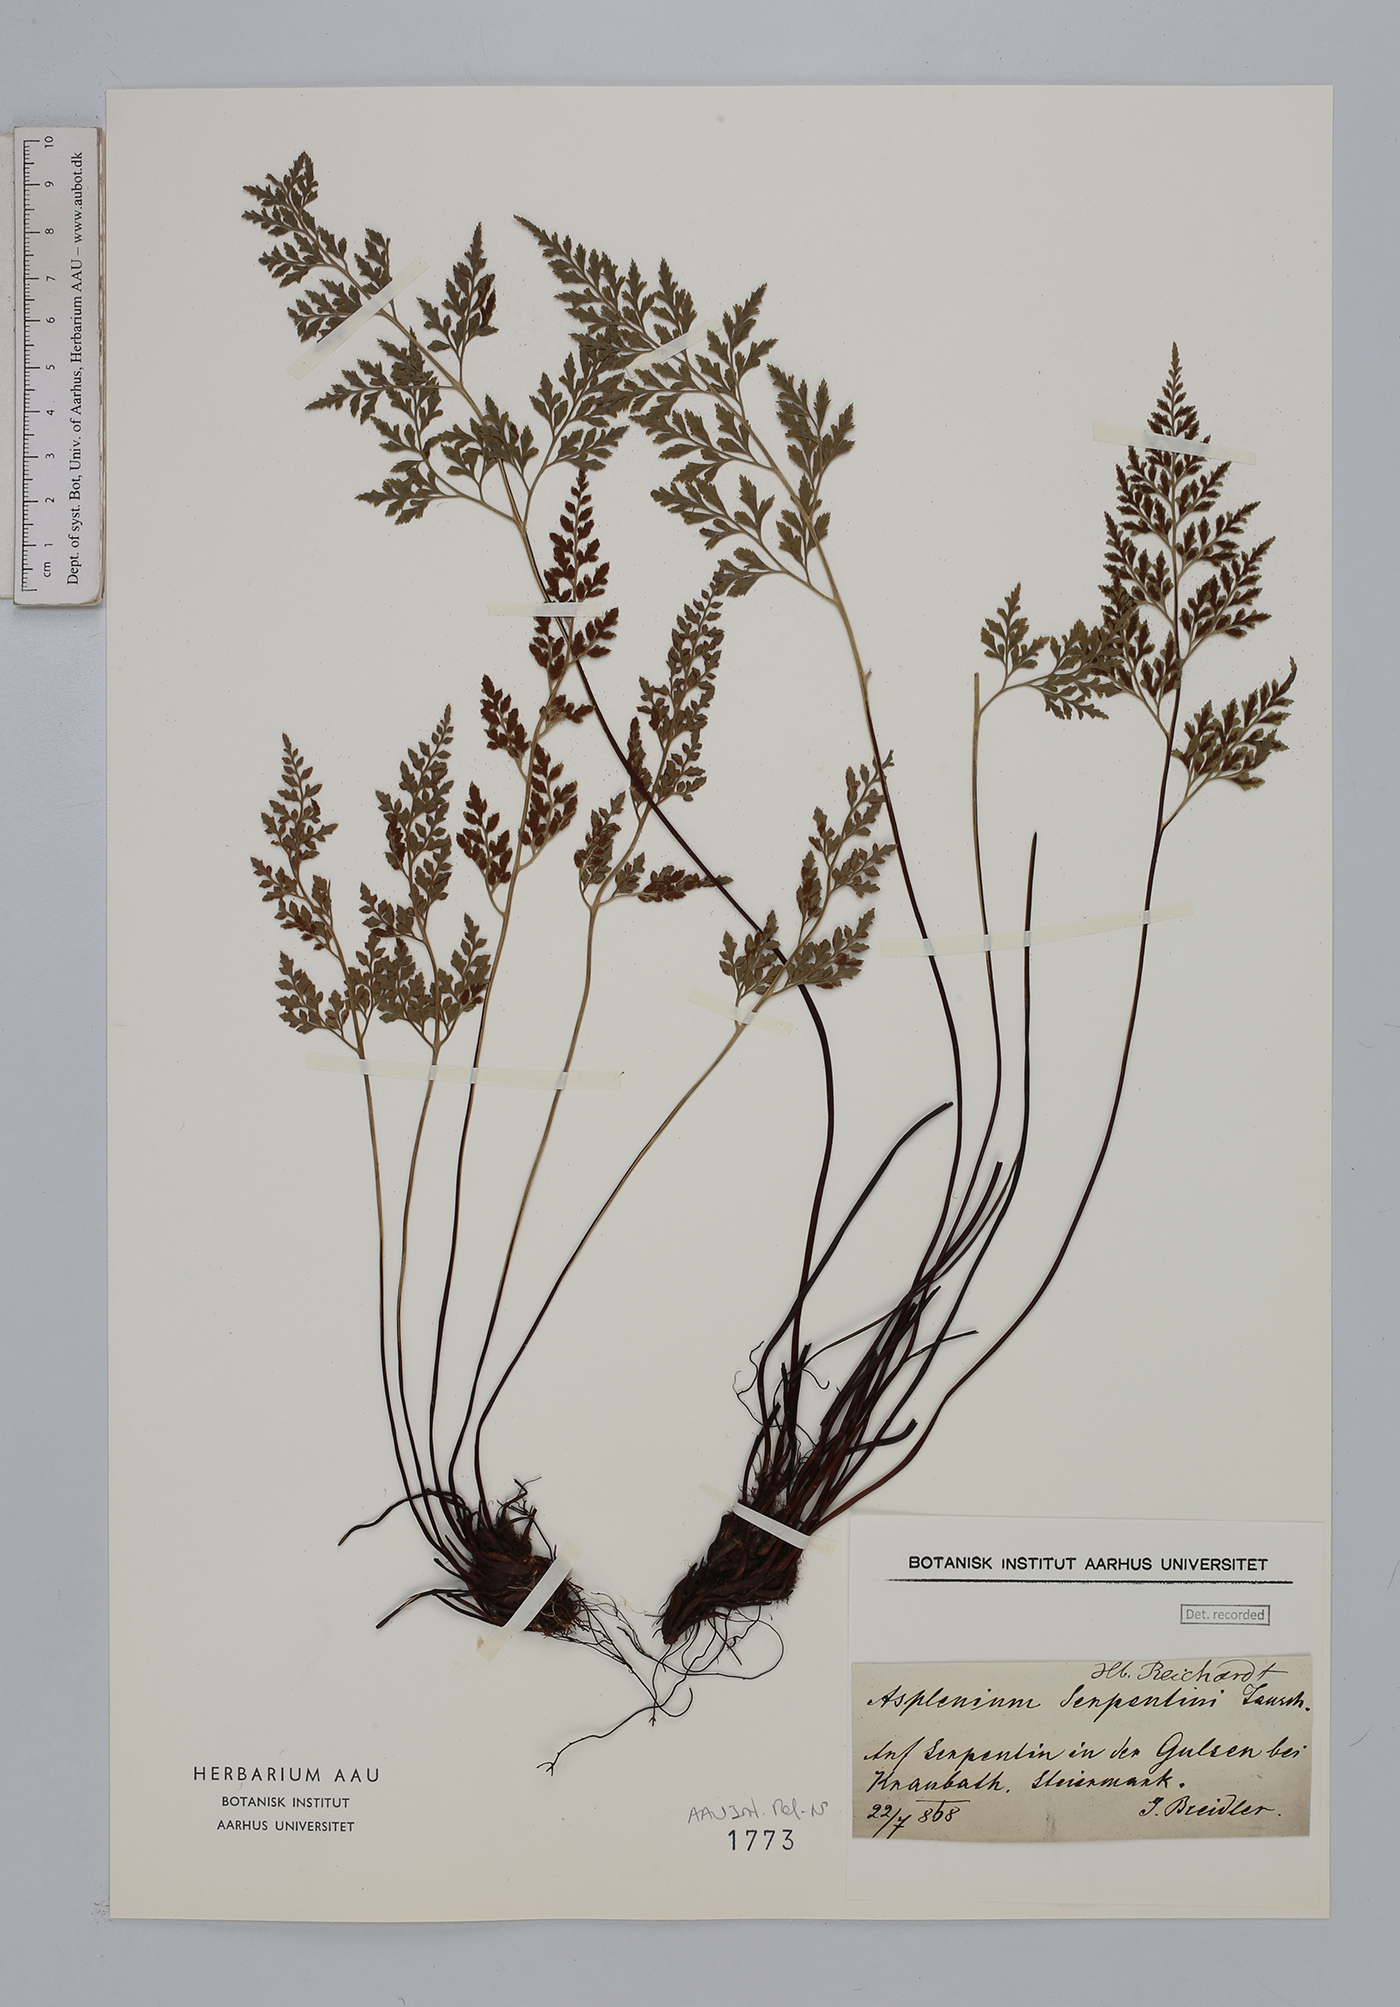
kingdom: Plantae
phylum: Tracheophyta
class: Polypodiopsida
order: Polypodiales
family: Aspleniaceae
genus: Asplenium
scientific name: Asplenium cuneifolium
